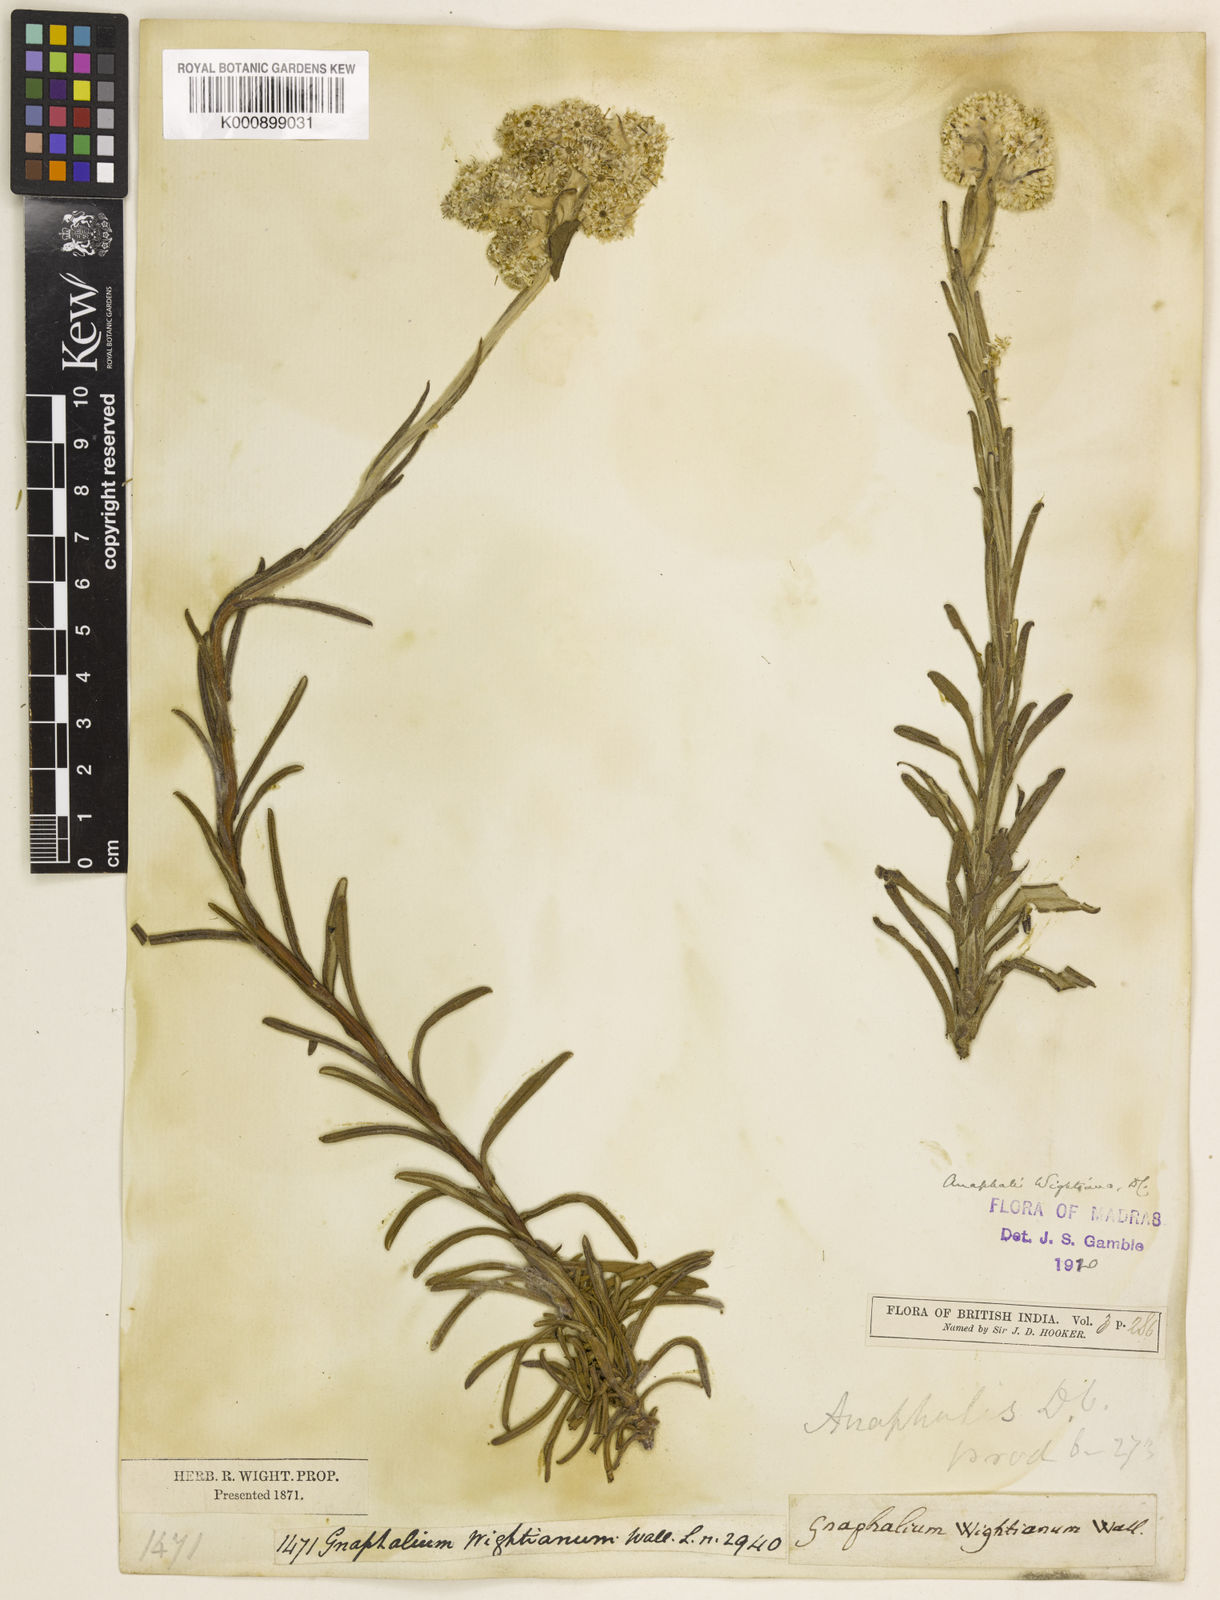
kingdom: Plantae
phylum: Tracheophyta
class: Magnoliopsida
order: Asterales
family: Asteraceae
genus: Anaphalis
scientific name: Anaphalis wightiana
